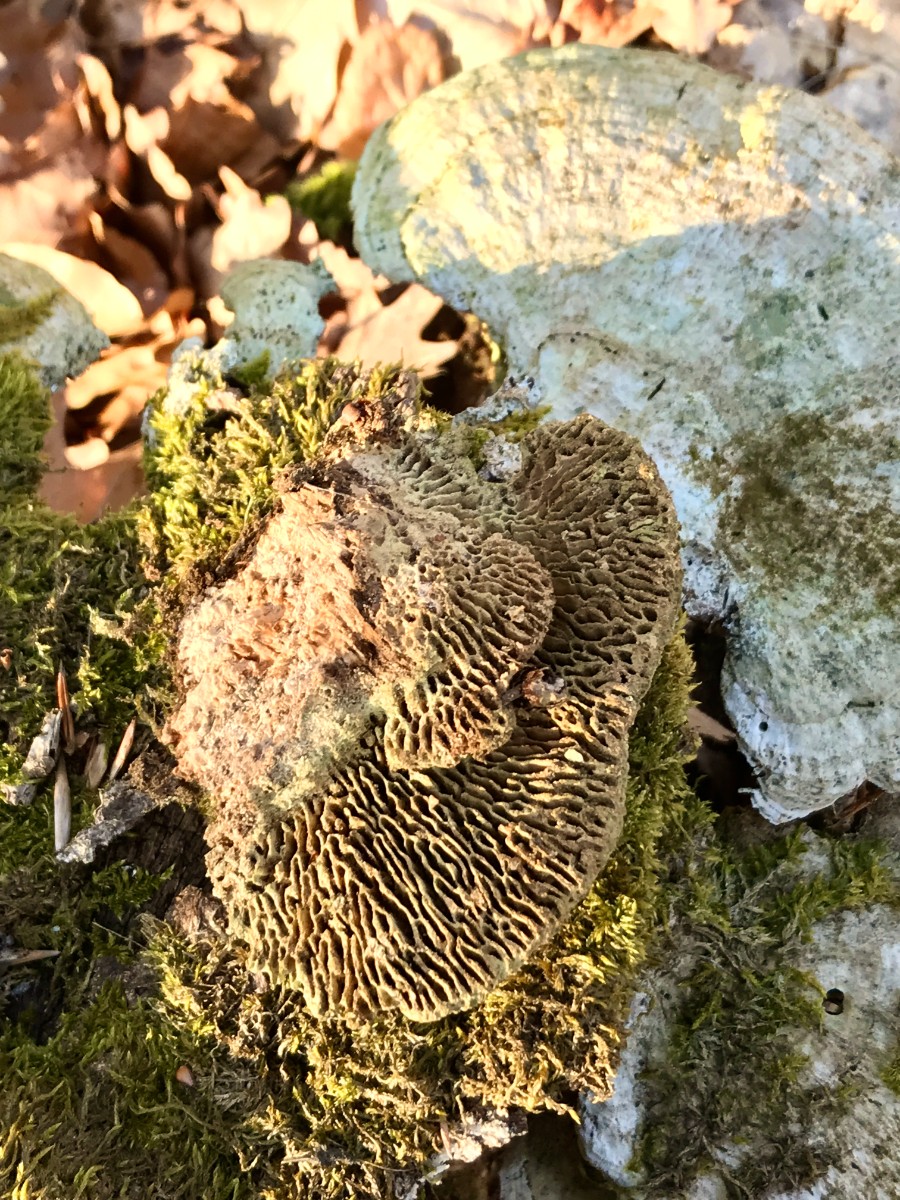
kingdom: Fungi
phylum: Basidiomycota
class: Agaricomycetes
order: Polyporales
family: Fomitopsidaceae
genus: Daedalea
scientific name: Daedalea quercina
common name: ege-labyrintsvamp
